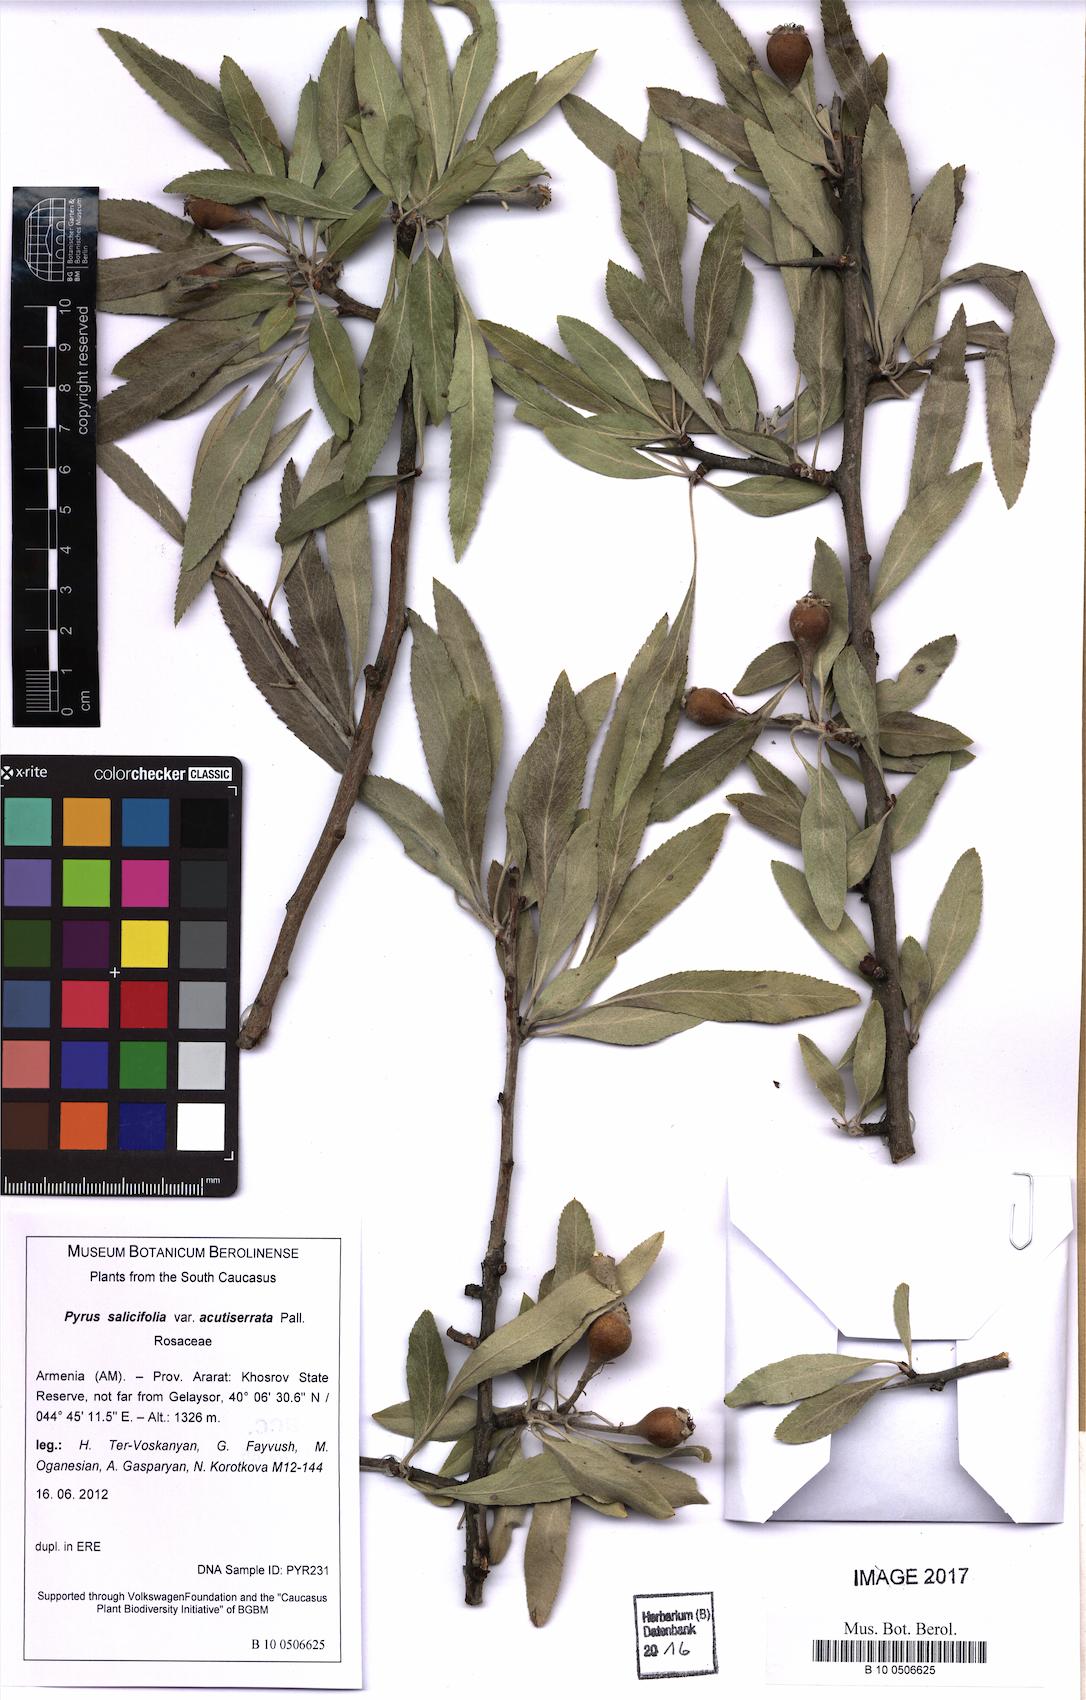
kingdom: Plantae
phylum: Tracheophyta
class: Magnoliopsida
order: Rosales
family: Rosaceae
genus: Pyrus
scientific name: Pyrus salicifolia
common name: Willow-leaved pear
